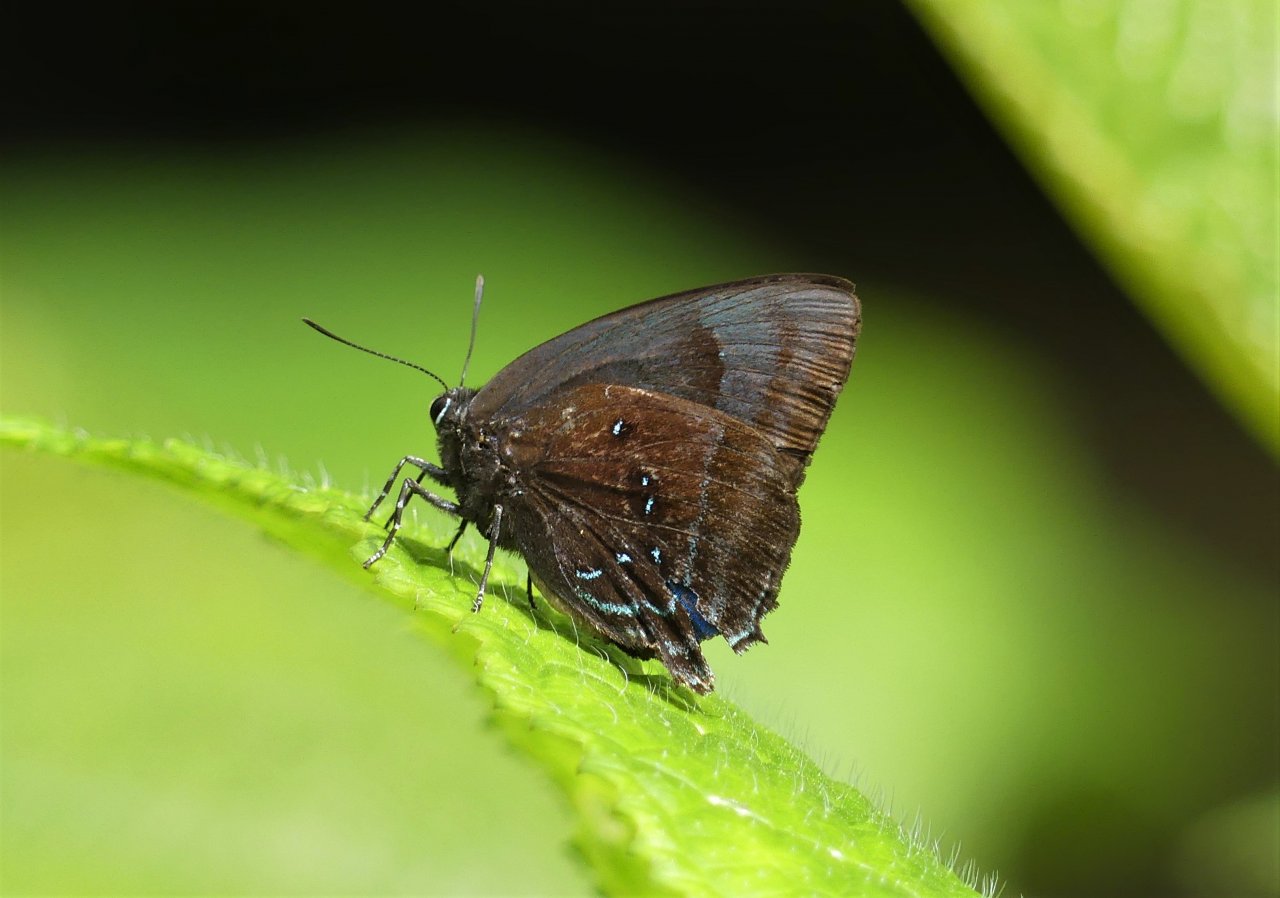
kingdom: Animalia
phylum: Arthropoda
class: Insecta
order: Lepidoptera
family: Lycaenidae
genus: Thecla
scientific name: Thecla hemon
